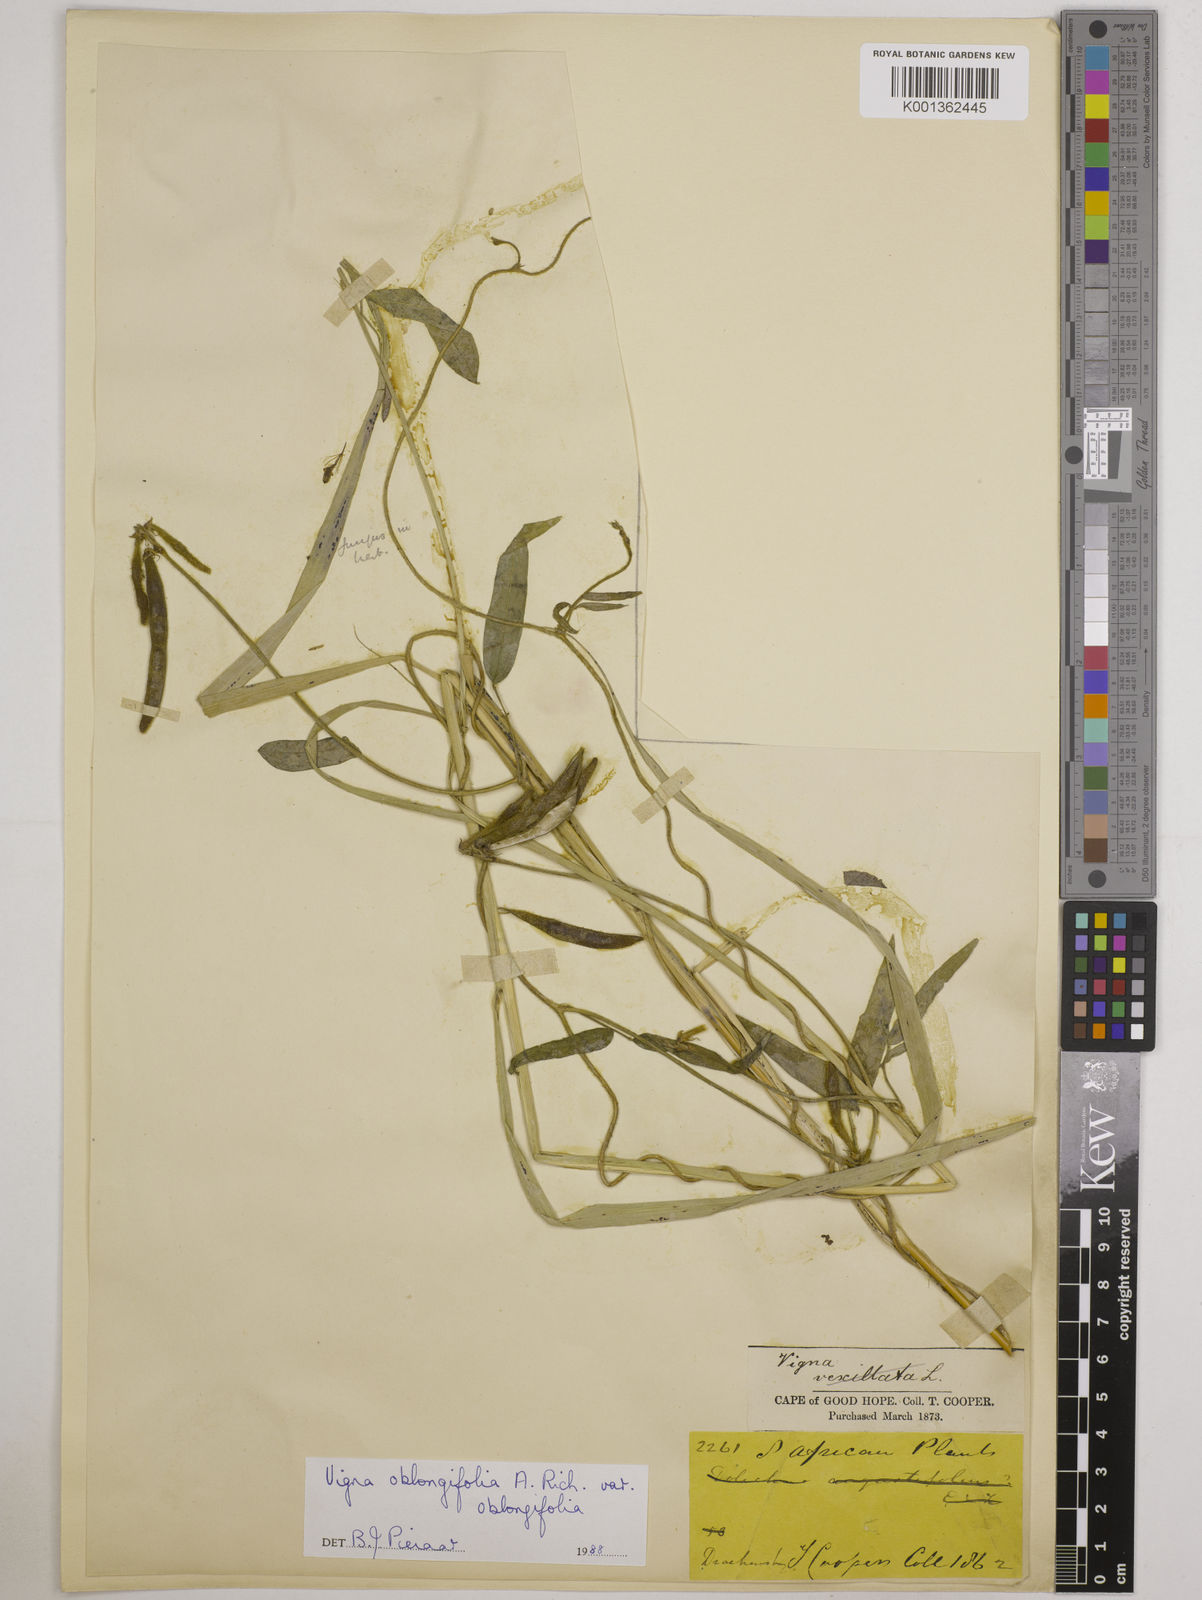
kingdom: Plantae
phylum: Tracheophyta
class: Magnoliopsida
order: Fabales
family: Fabaceae
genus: Vigna
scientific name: Vigna oblongifolia
